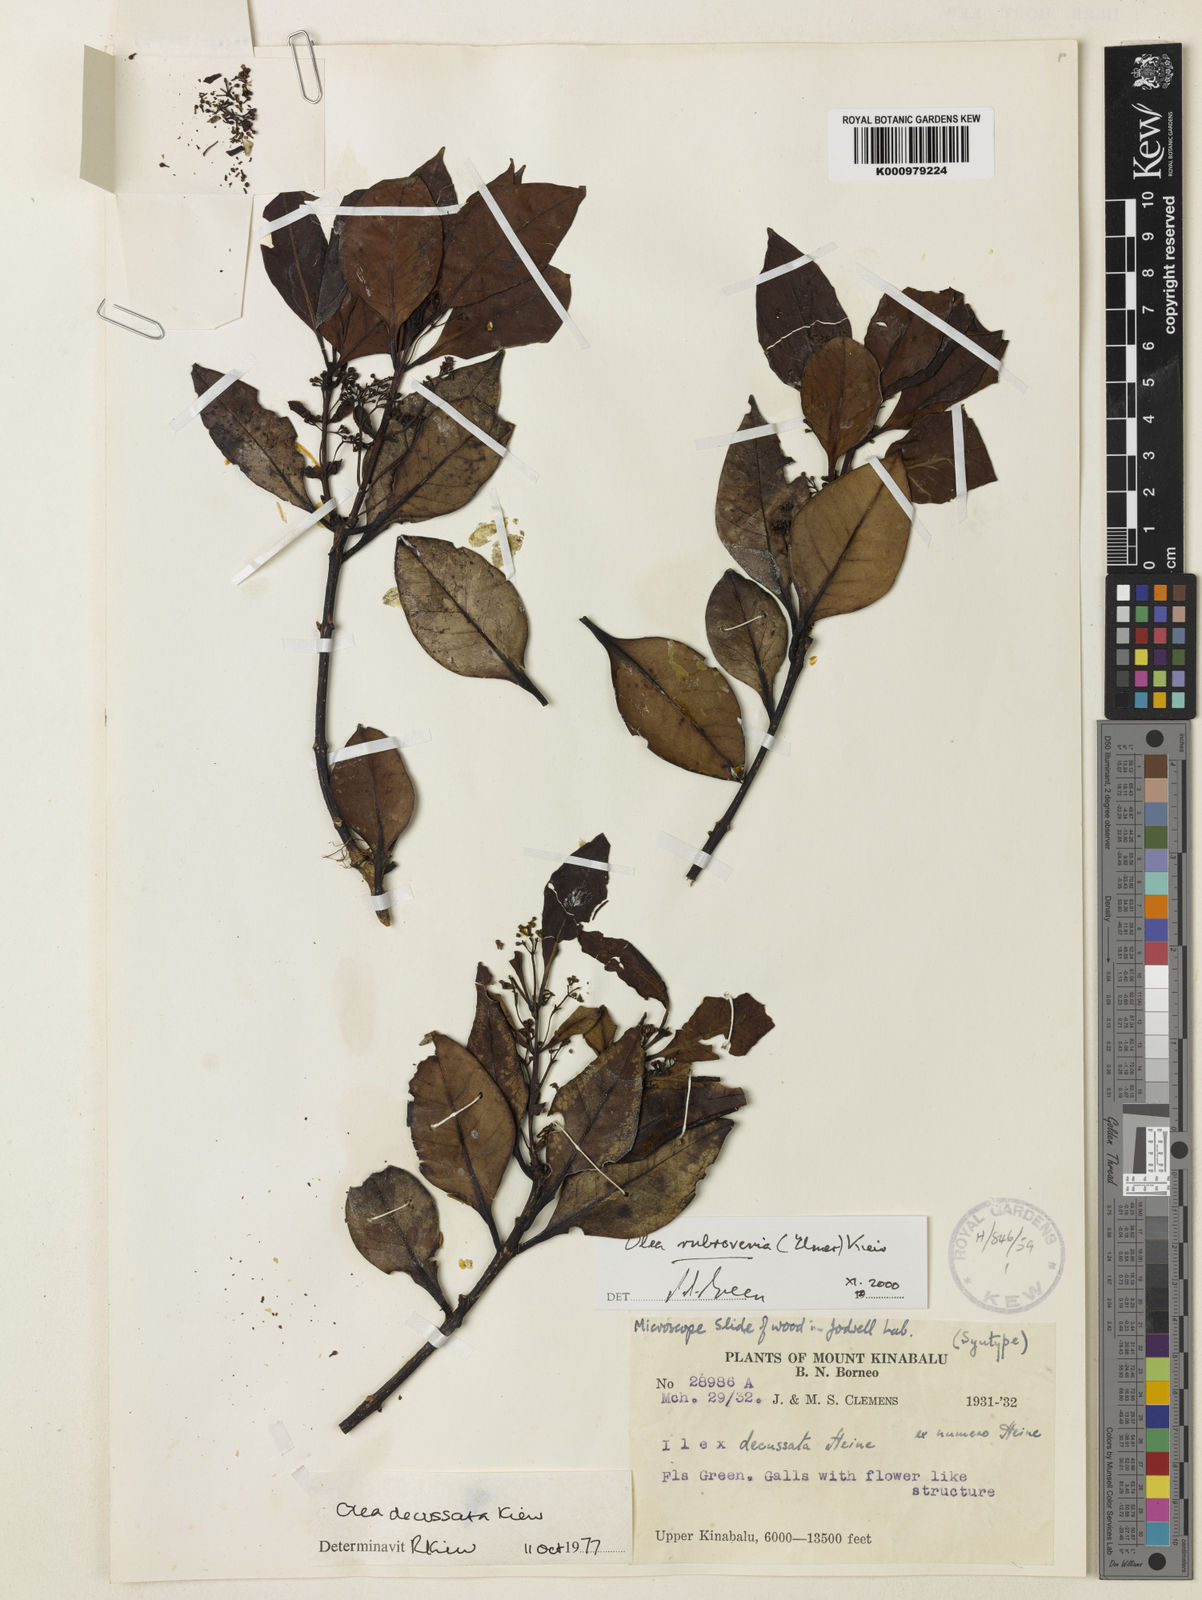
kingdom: Plantae
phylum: Tracheophyta
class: Magnoliopsida
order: Lamiales
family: Oleaceae
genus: Tetrapilus
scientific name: Tetrapilus rubrovenius
